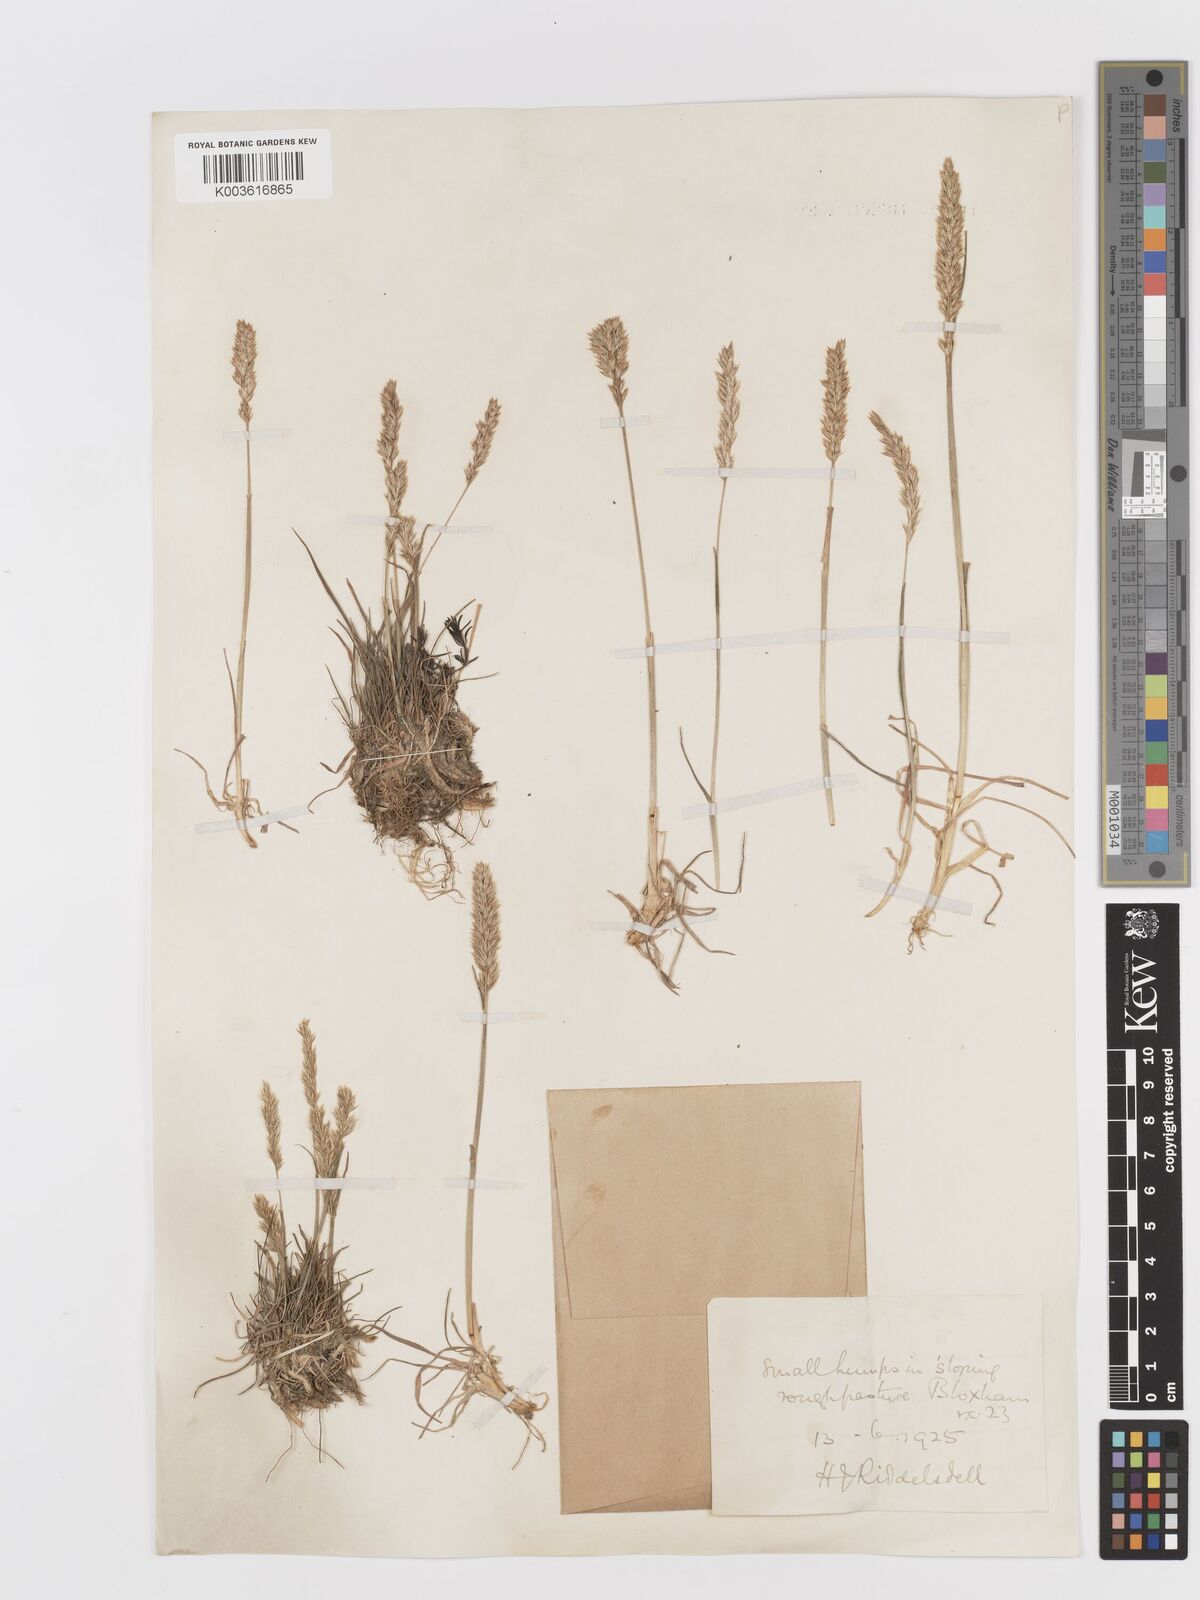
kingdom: Plantae
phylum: Tracheophyta
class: Liliopsida
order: Poales
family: Poaceae
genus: Koeleria
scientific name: Koeleria macrantha
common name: Crested hair-grass
